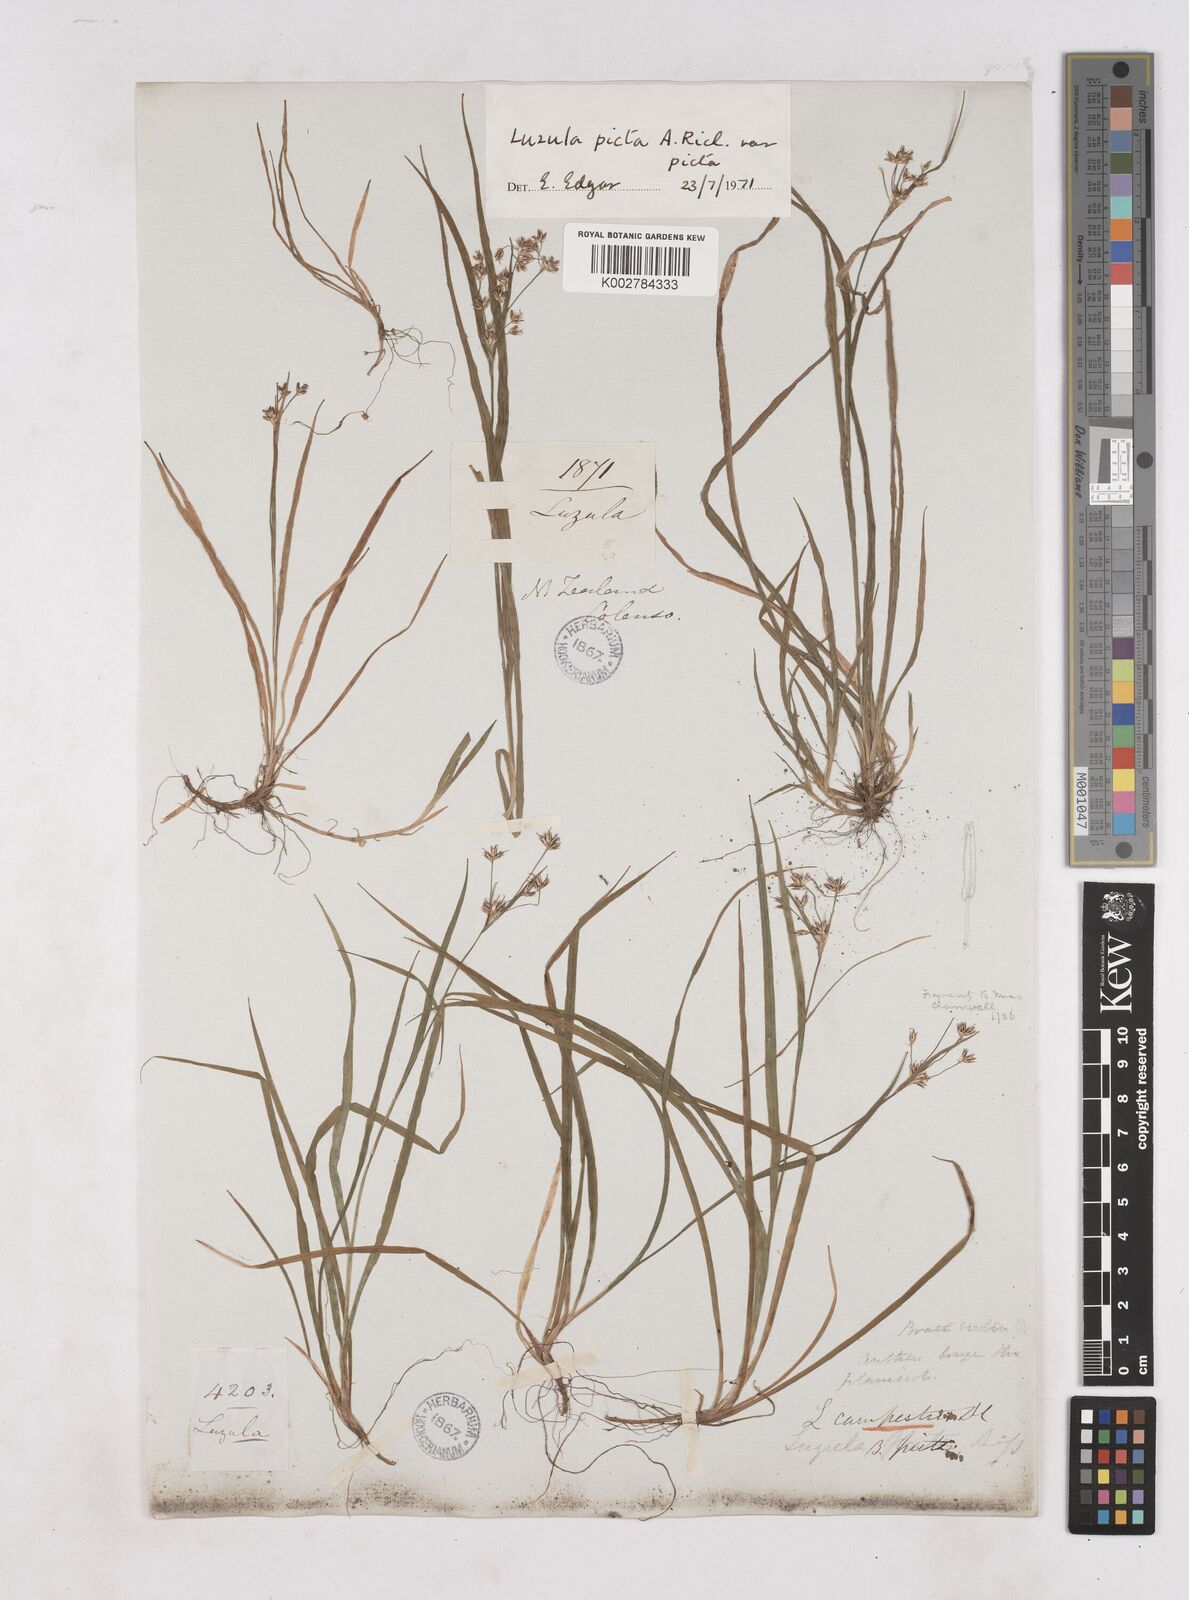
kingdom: Plantae
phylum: Tracheophyta
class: Liliopsida
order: Poales
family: Juncaceae
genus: Luzula
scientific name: Luzula picta
